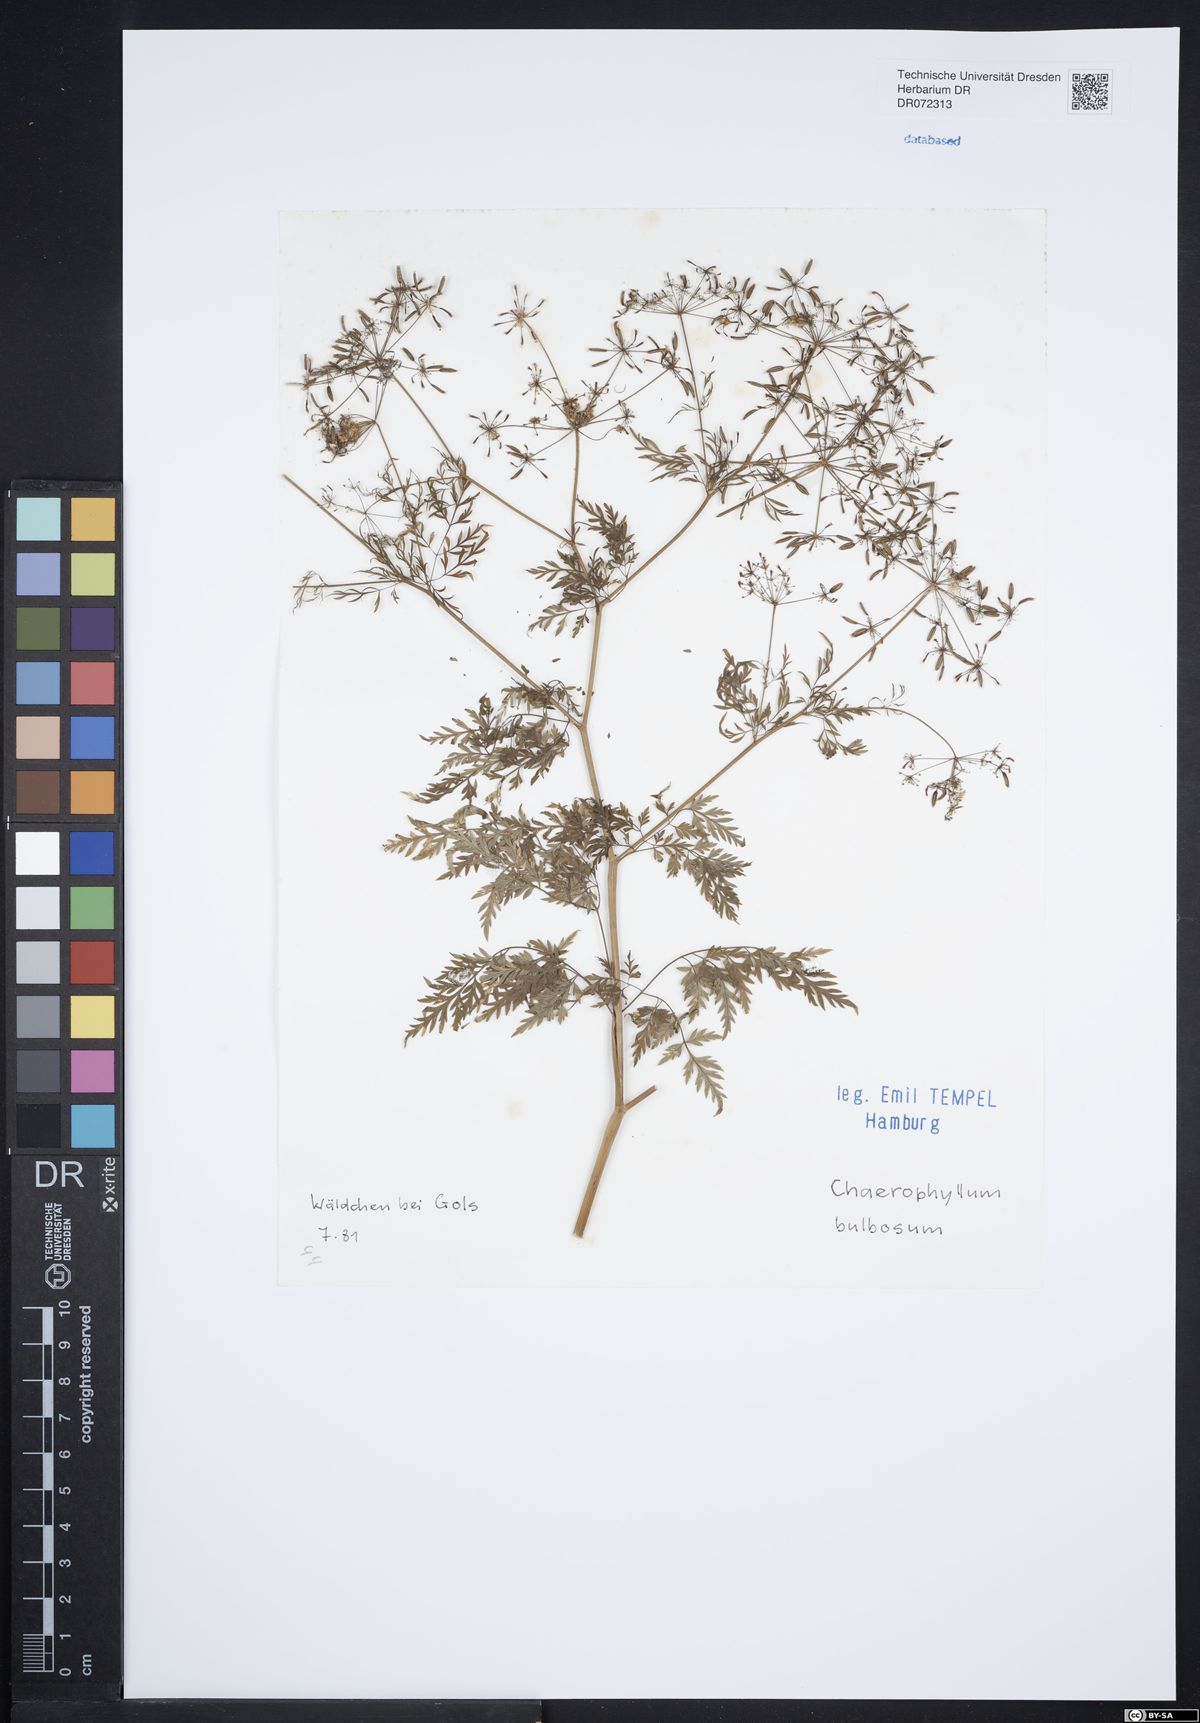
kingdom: Plantae
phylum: Tracheophyta
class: Magnoliopsida
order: Apiales
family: Apiaceae
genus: Chaerophyllum
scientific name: Chaerophyllum bulbosum
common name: Bulbous chervil
